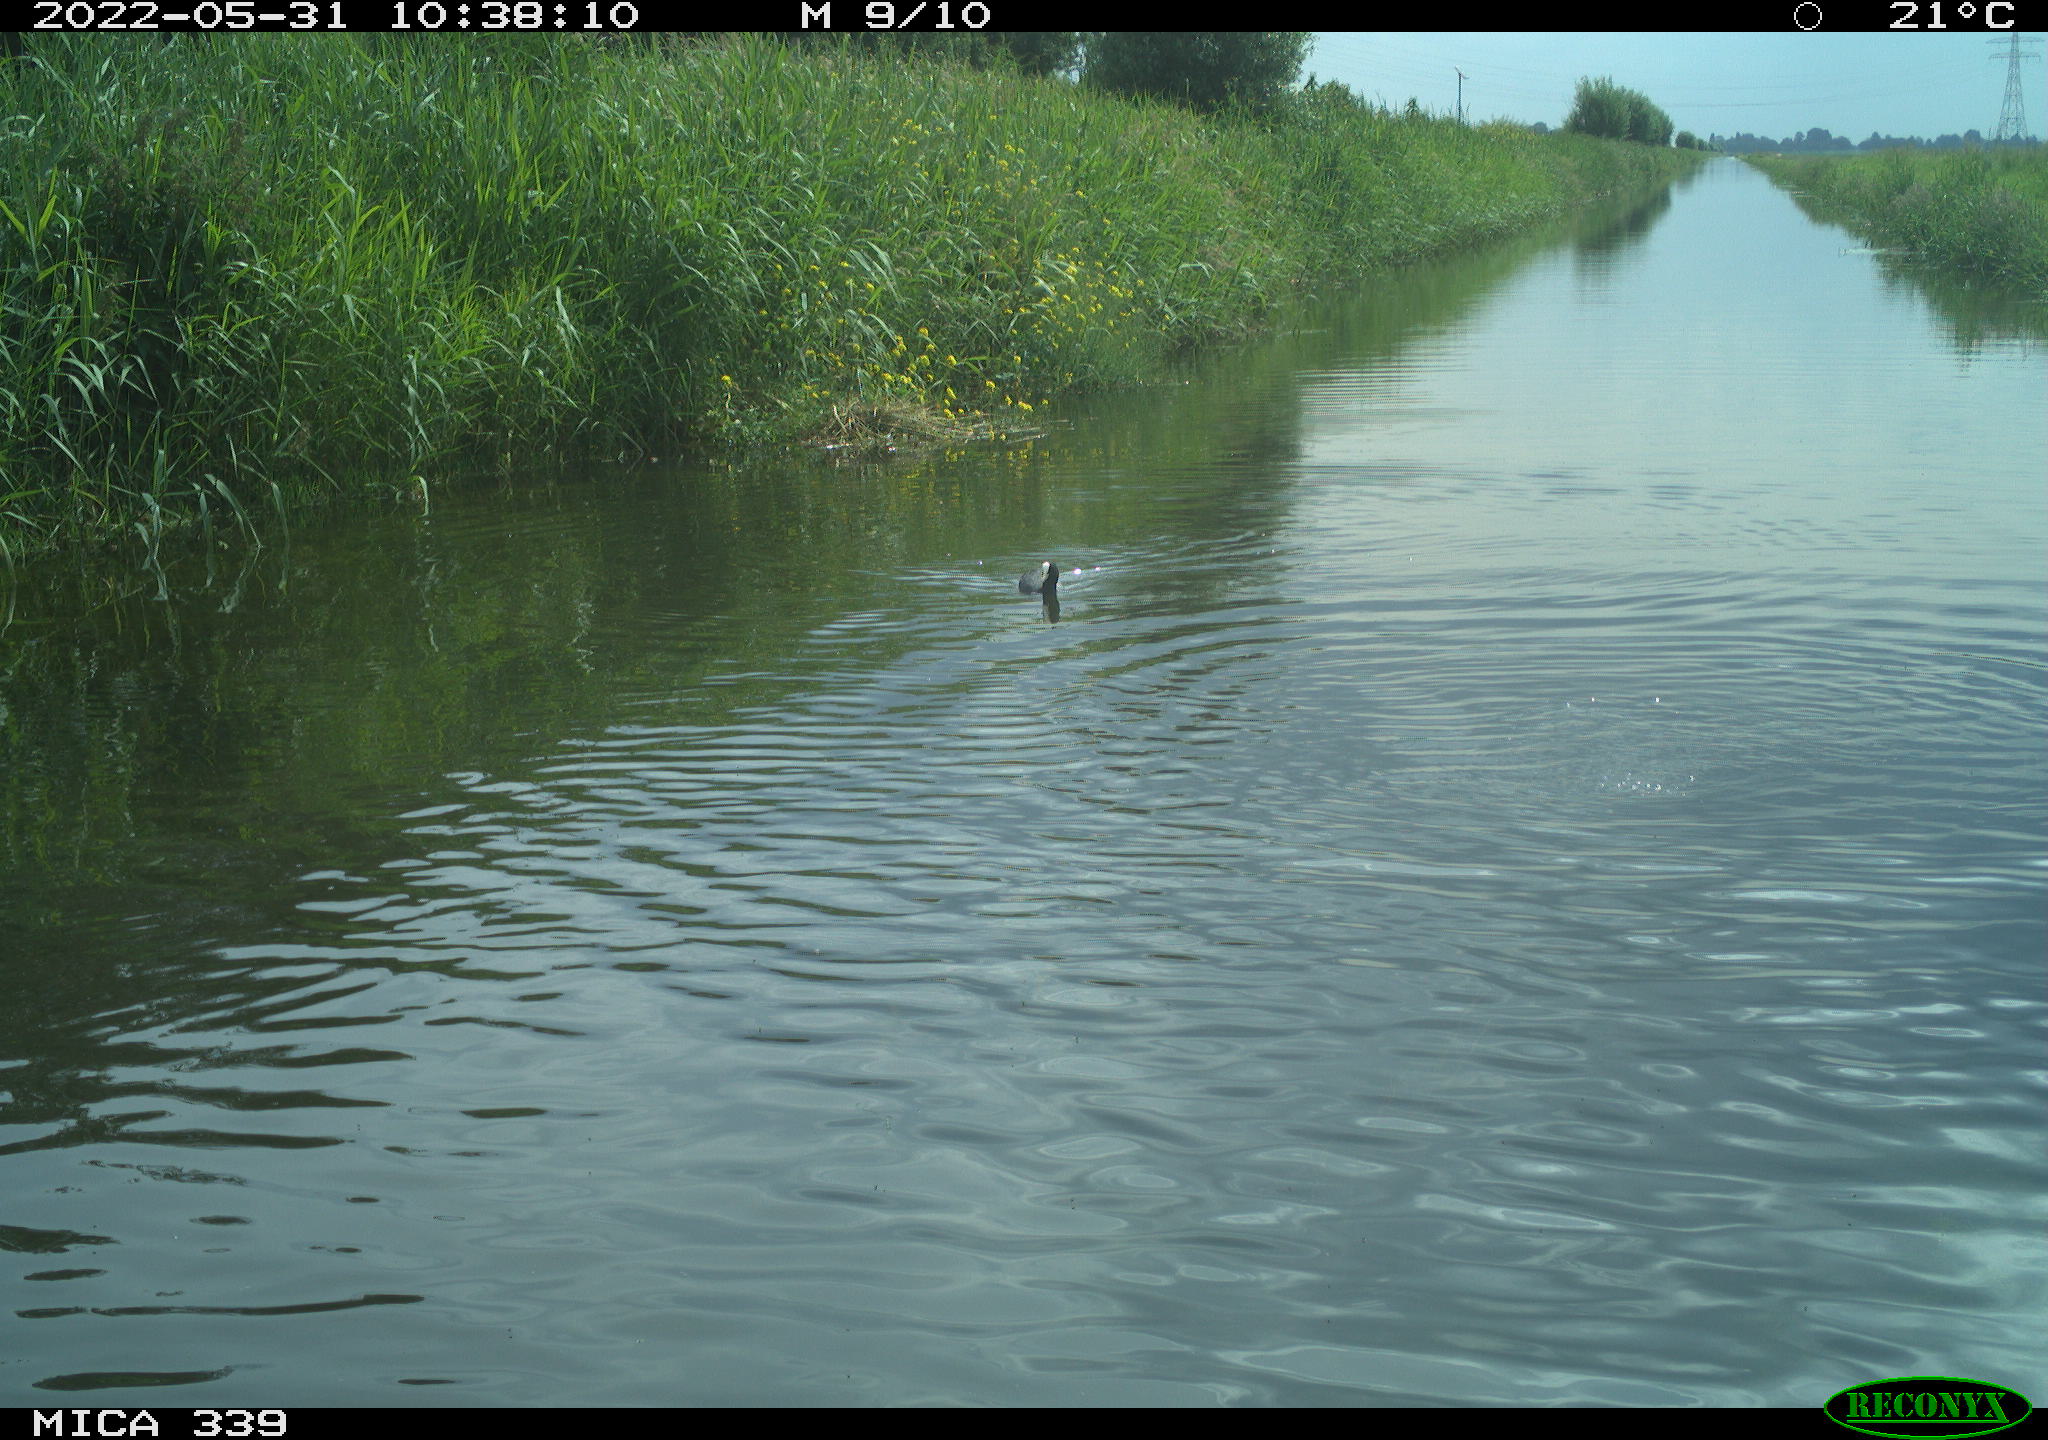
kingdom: Animalia
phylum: Chordata
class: Aves
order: Gruiformes
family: Rallidae
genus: Fulica
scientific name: Fulica atra
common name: Eurasian coot
